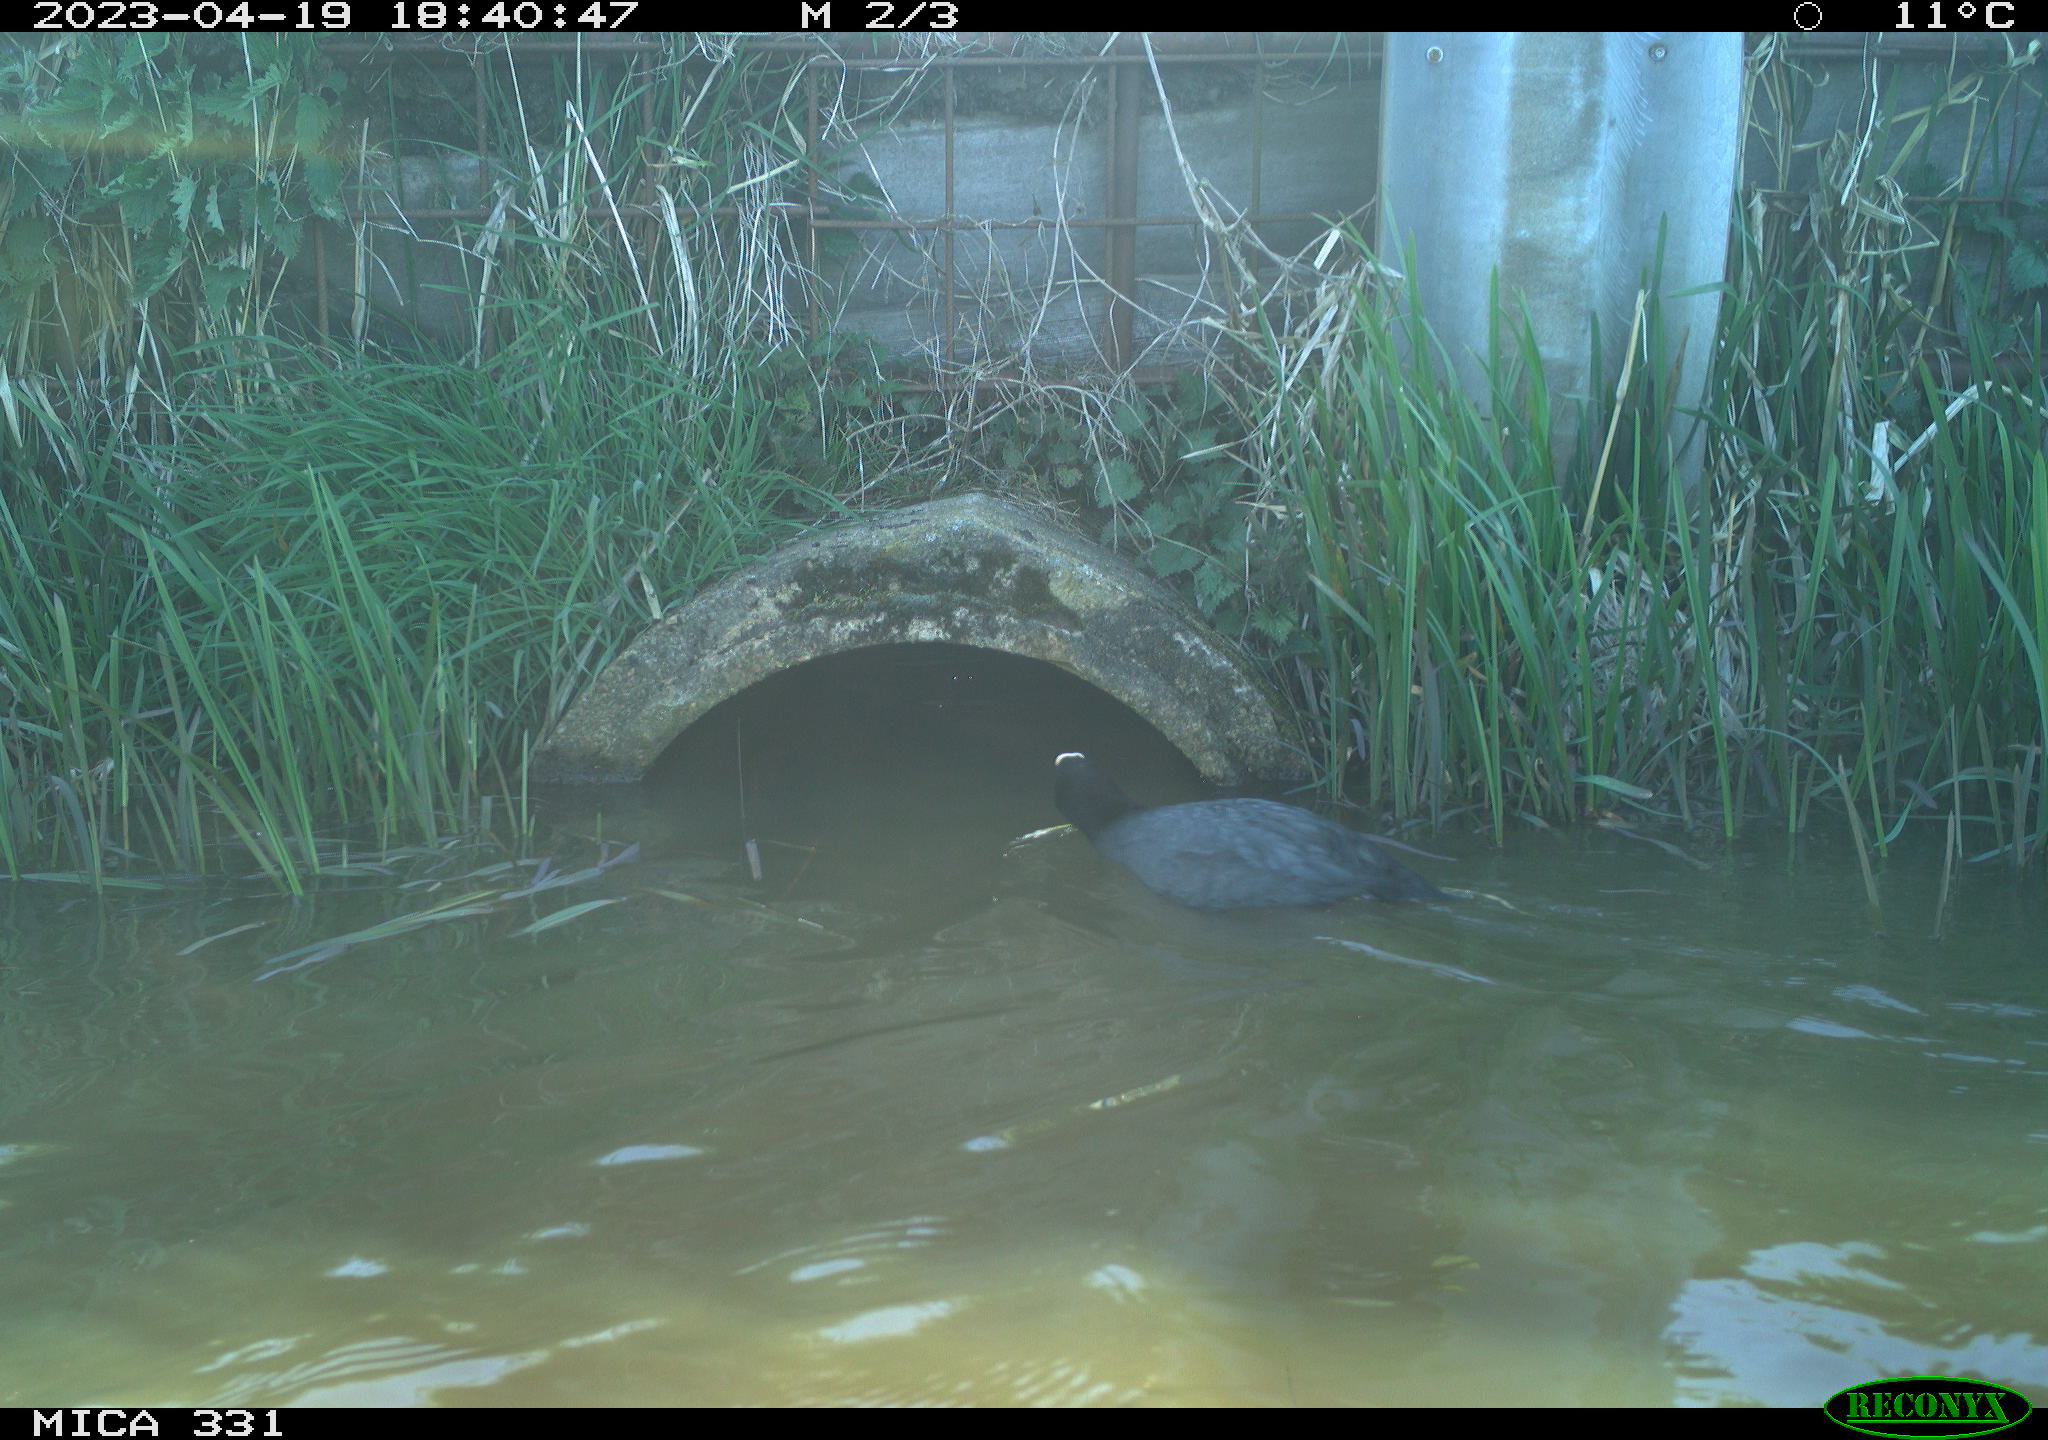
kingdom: Animalia
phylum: Chordata
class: Aves
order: Gruiformes
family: Rallidae
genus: Fulica
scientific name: Fulica atra
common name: Eurasian coot
